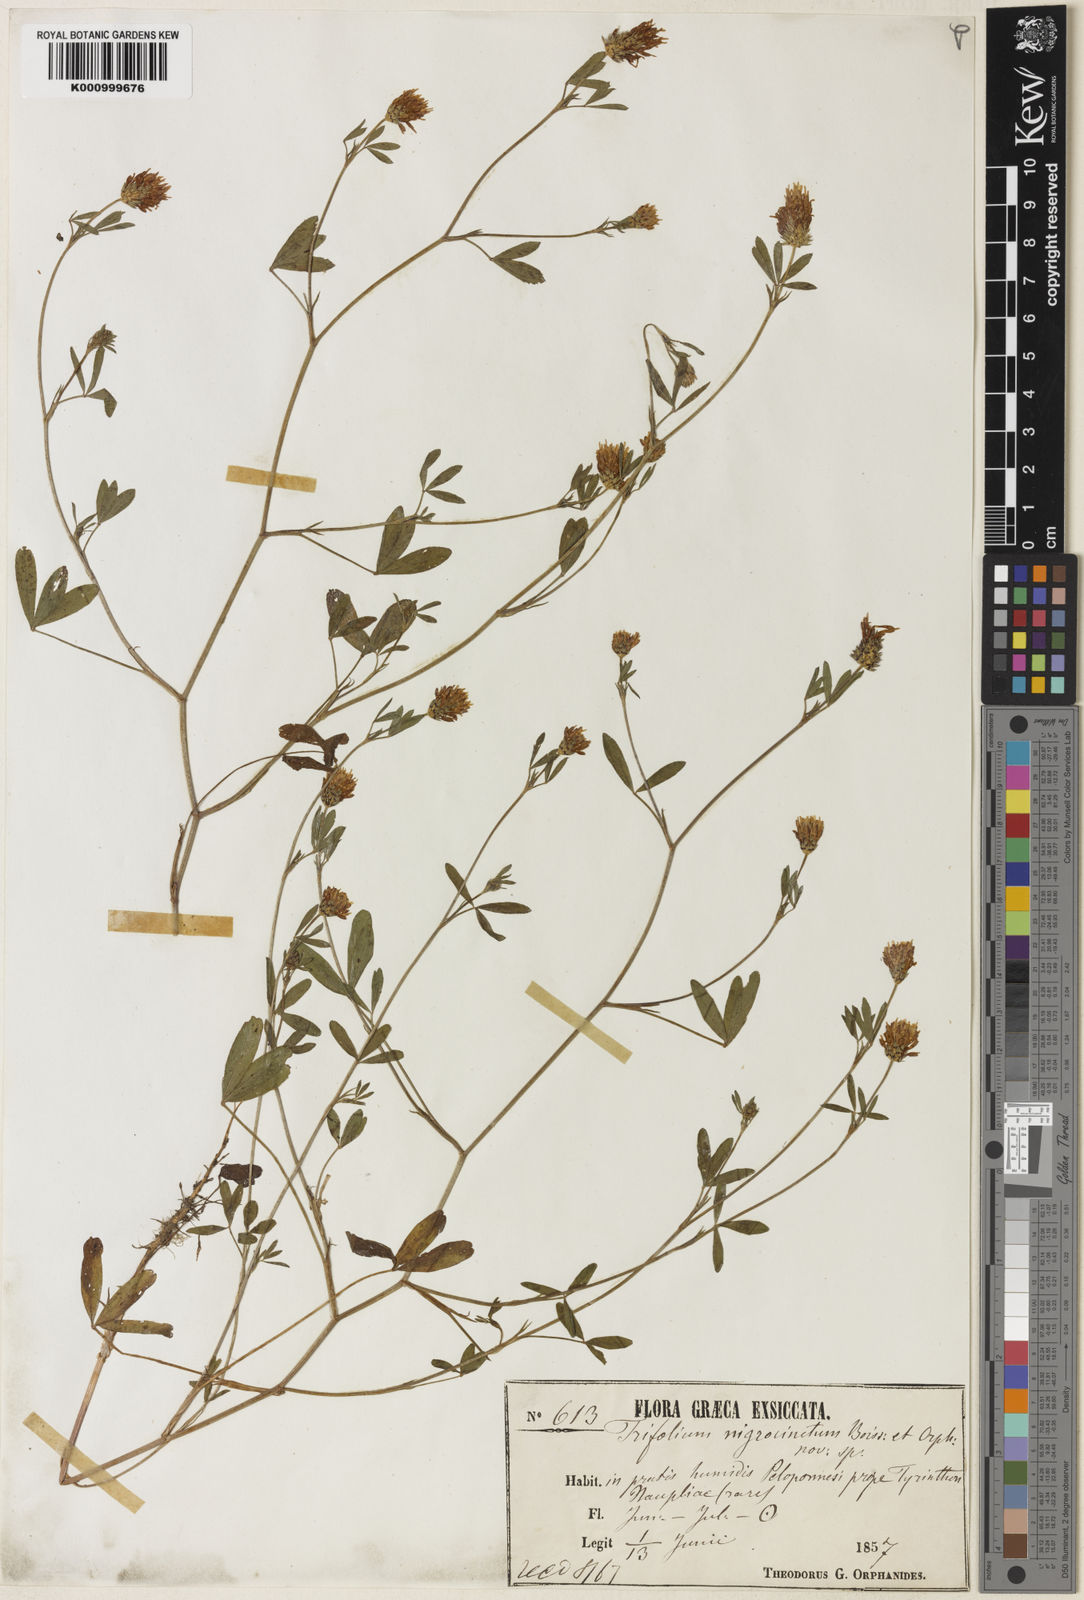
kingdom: Plantae
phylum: Tracheophyta
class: Magnoliopsida
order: Fabales
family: Fabaceae
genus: Trifolium
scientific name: Trifolium squamosum
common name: Sea clover
